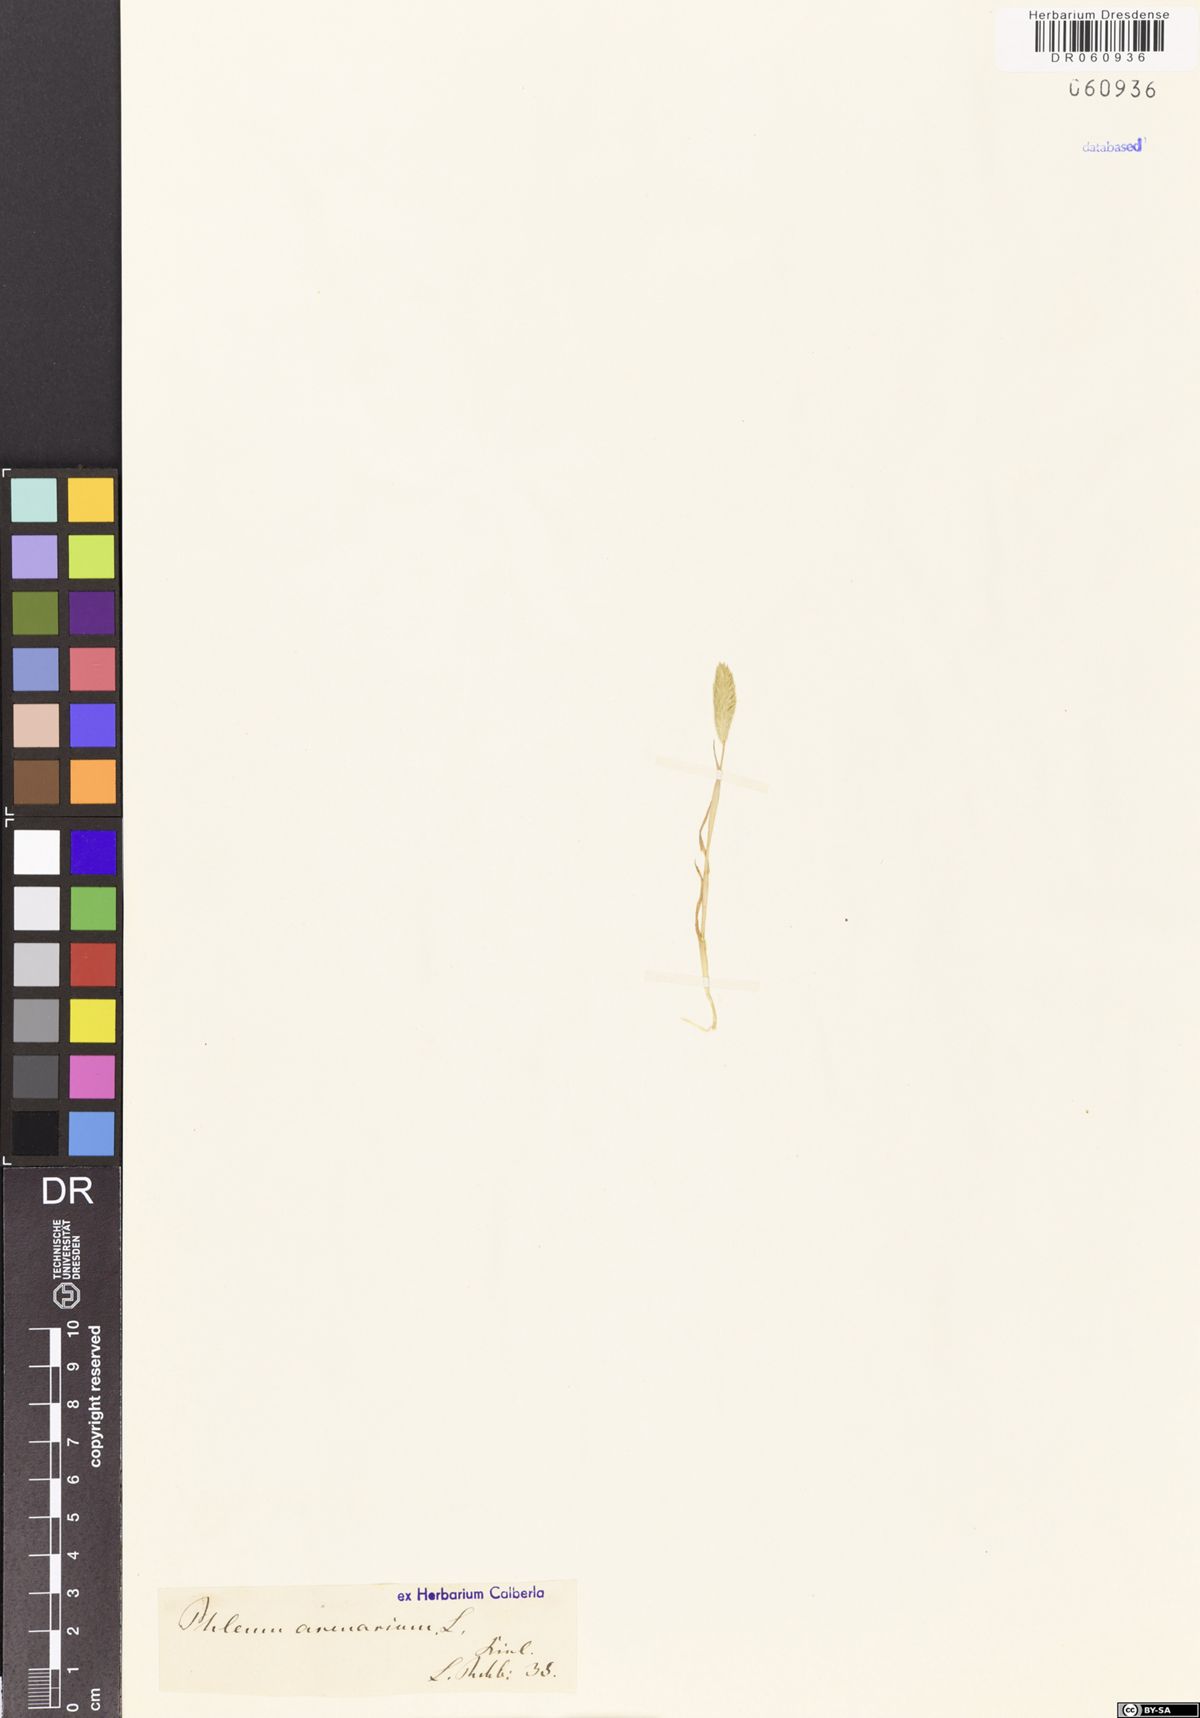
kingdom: Plantae
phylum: Tracheophyta
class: Liliopsida
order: Poales
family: Poaceae
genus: Phleum
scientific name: Phleum arenarium
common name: Sand cat's-tail
